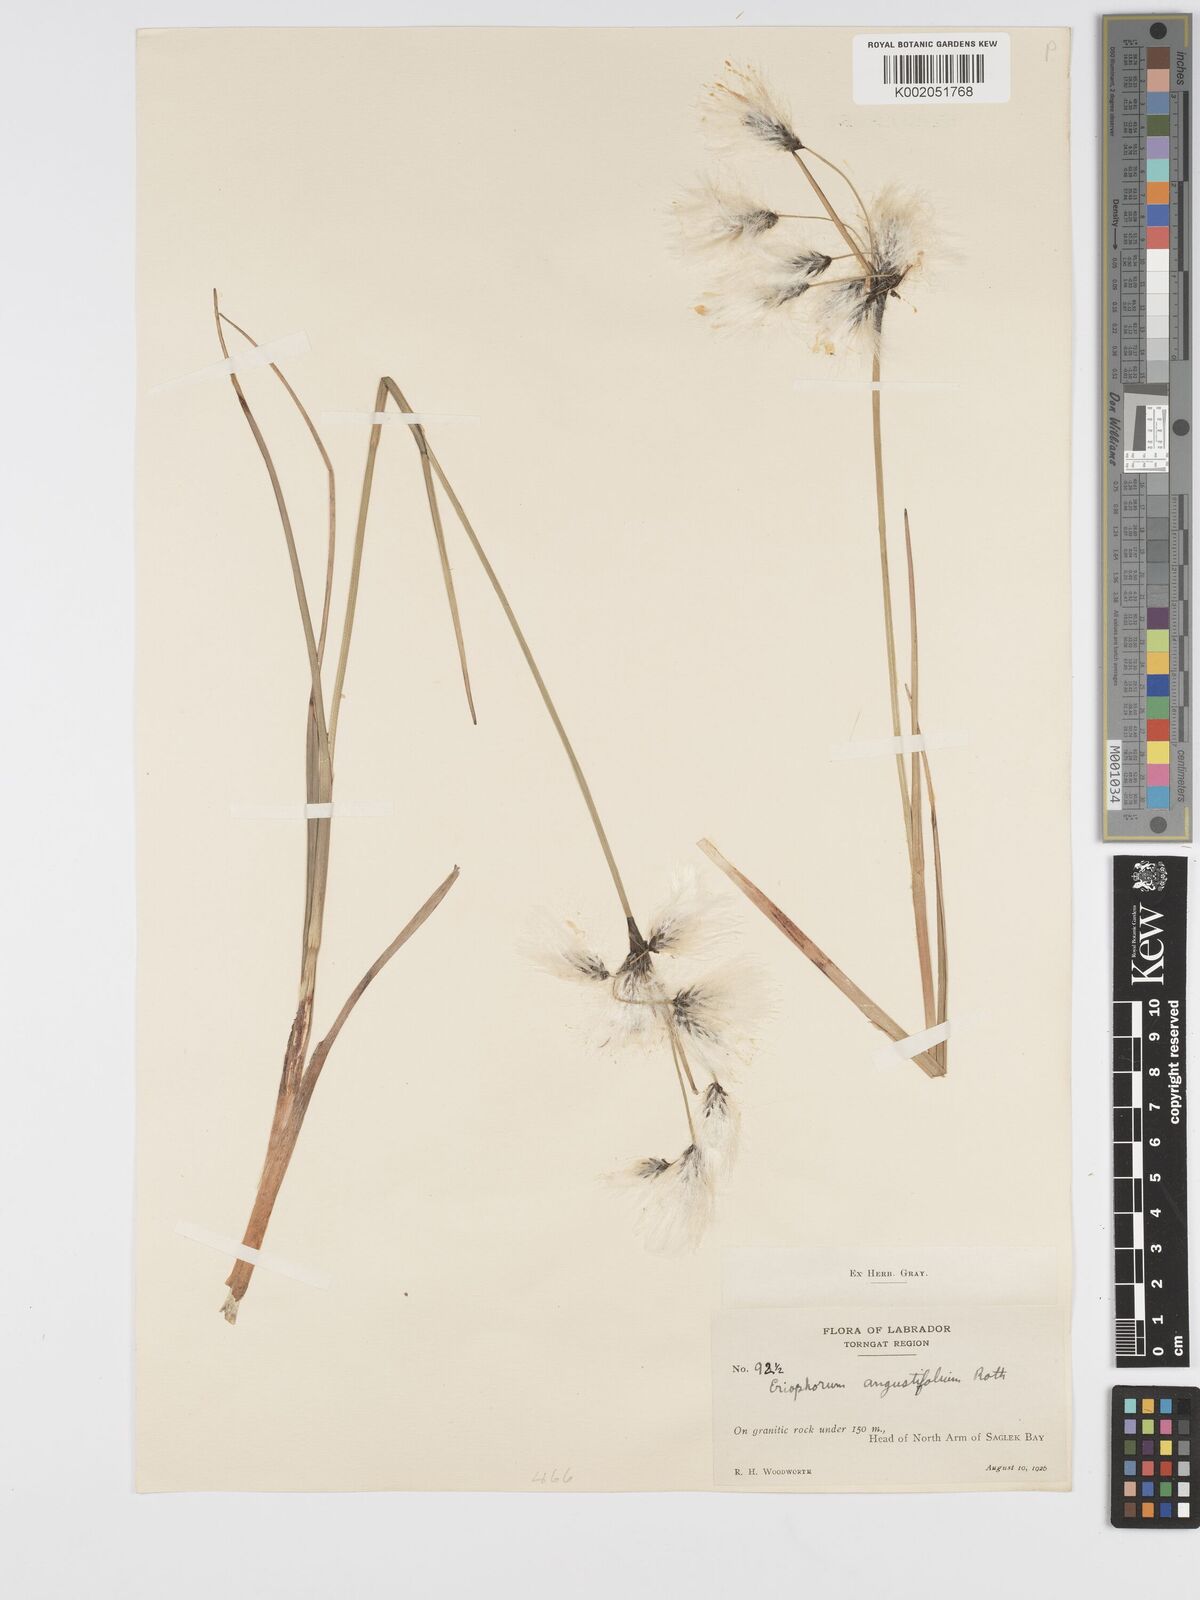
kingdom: Plantae
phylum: Tracheophyta
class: Liliopsida
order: Poales
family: Cyperaceae
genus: Eriophorum
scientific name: Eriophorum angustifolium
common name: Common cottongrass
